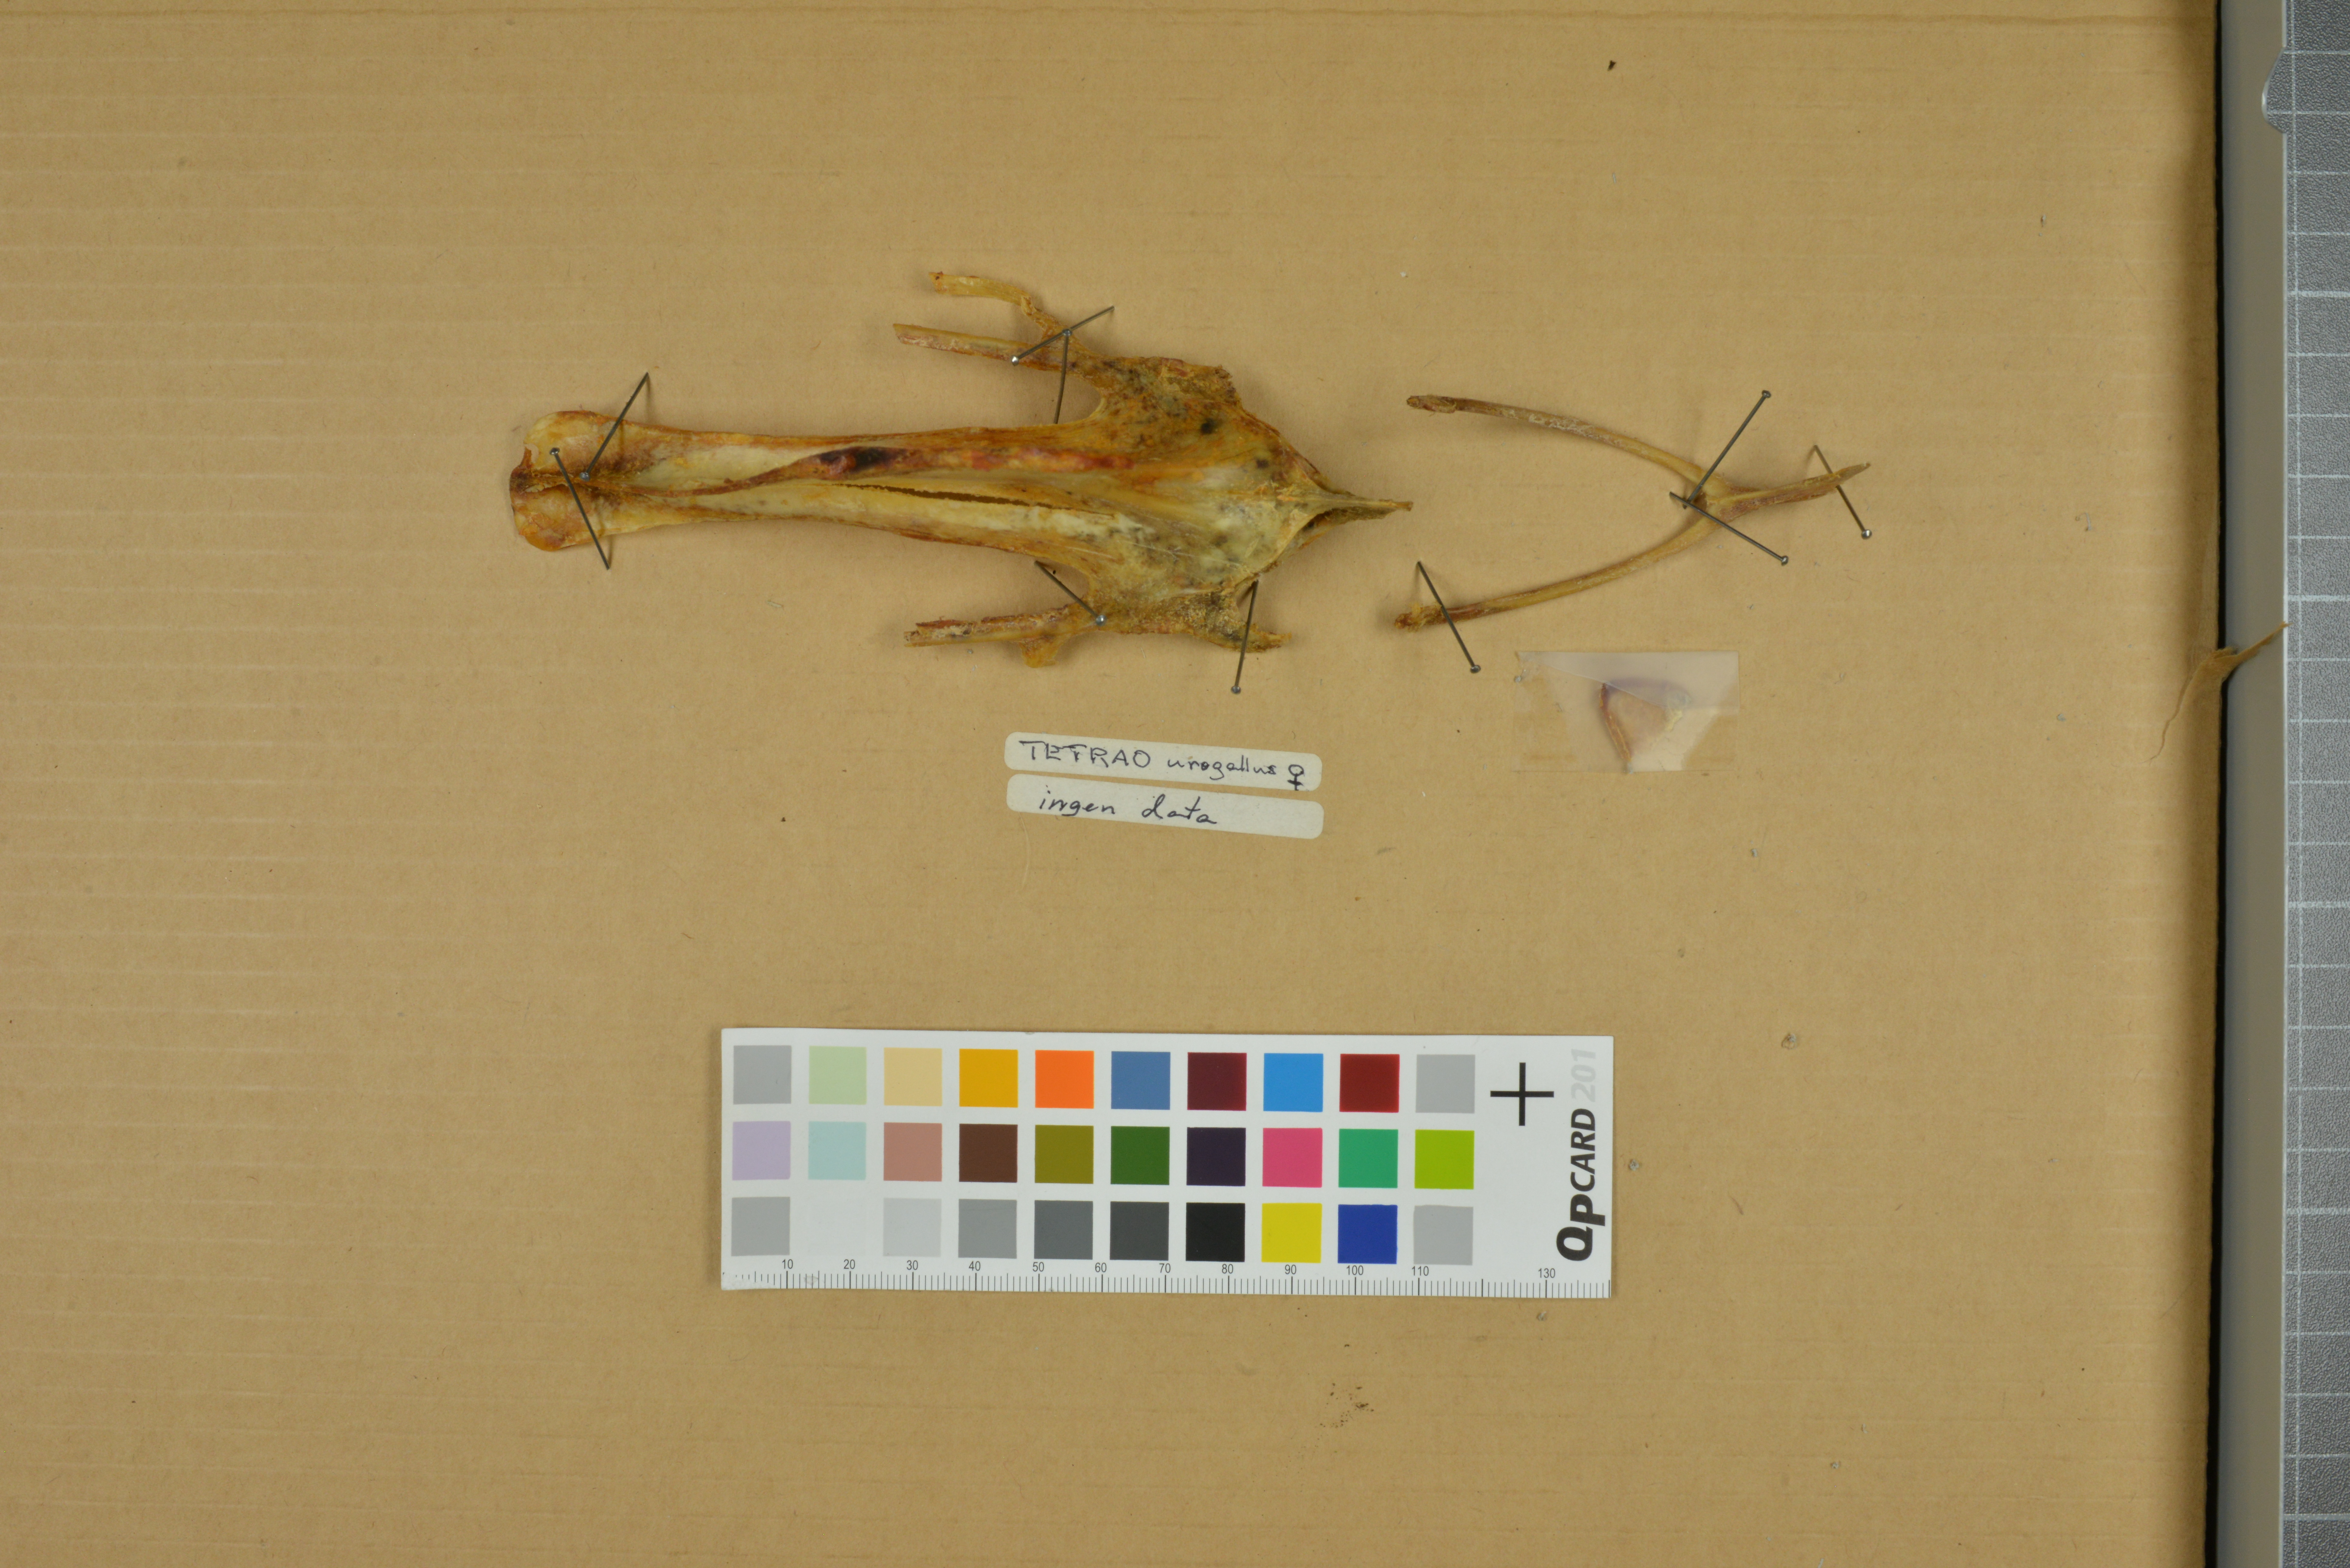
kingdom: Animalia
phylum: Chordata
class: Aves
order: Galliformes
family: Phasianidae
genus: Tetrao
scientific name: Tetrao urogallus
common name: Western capercaillie
